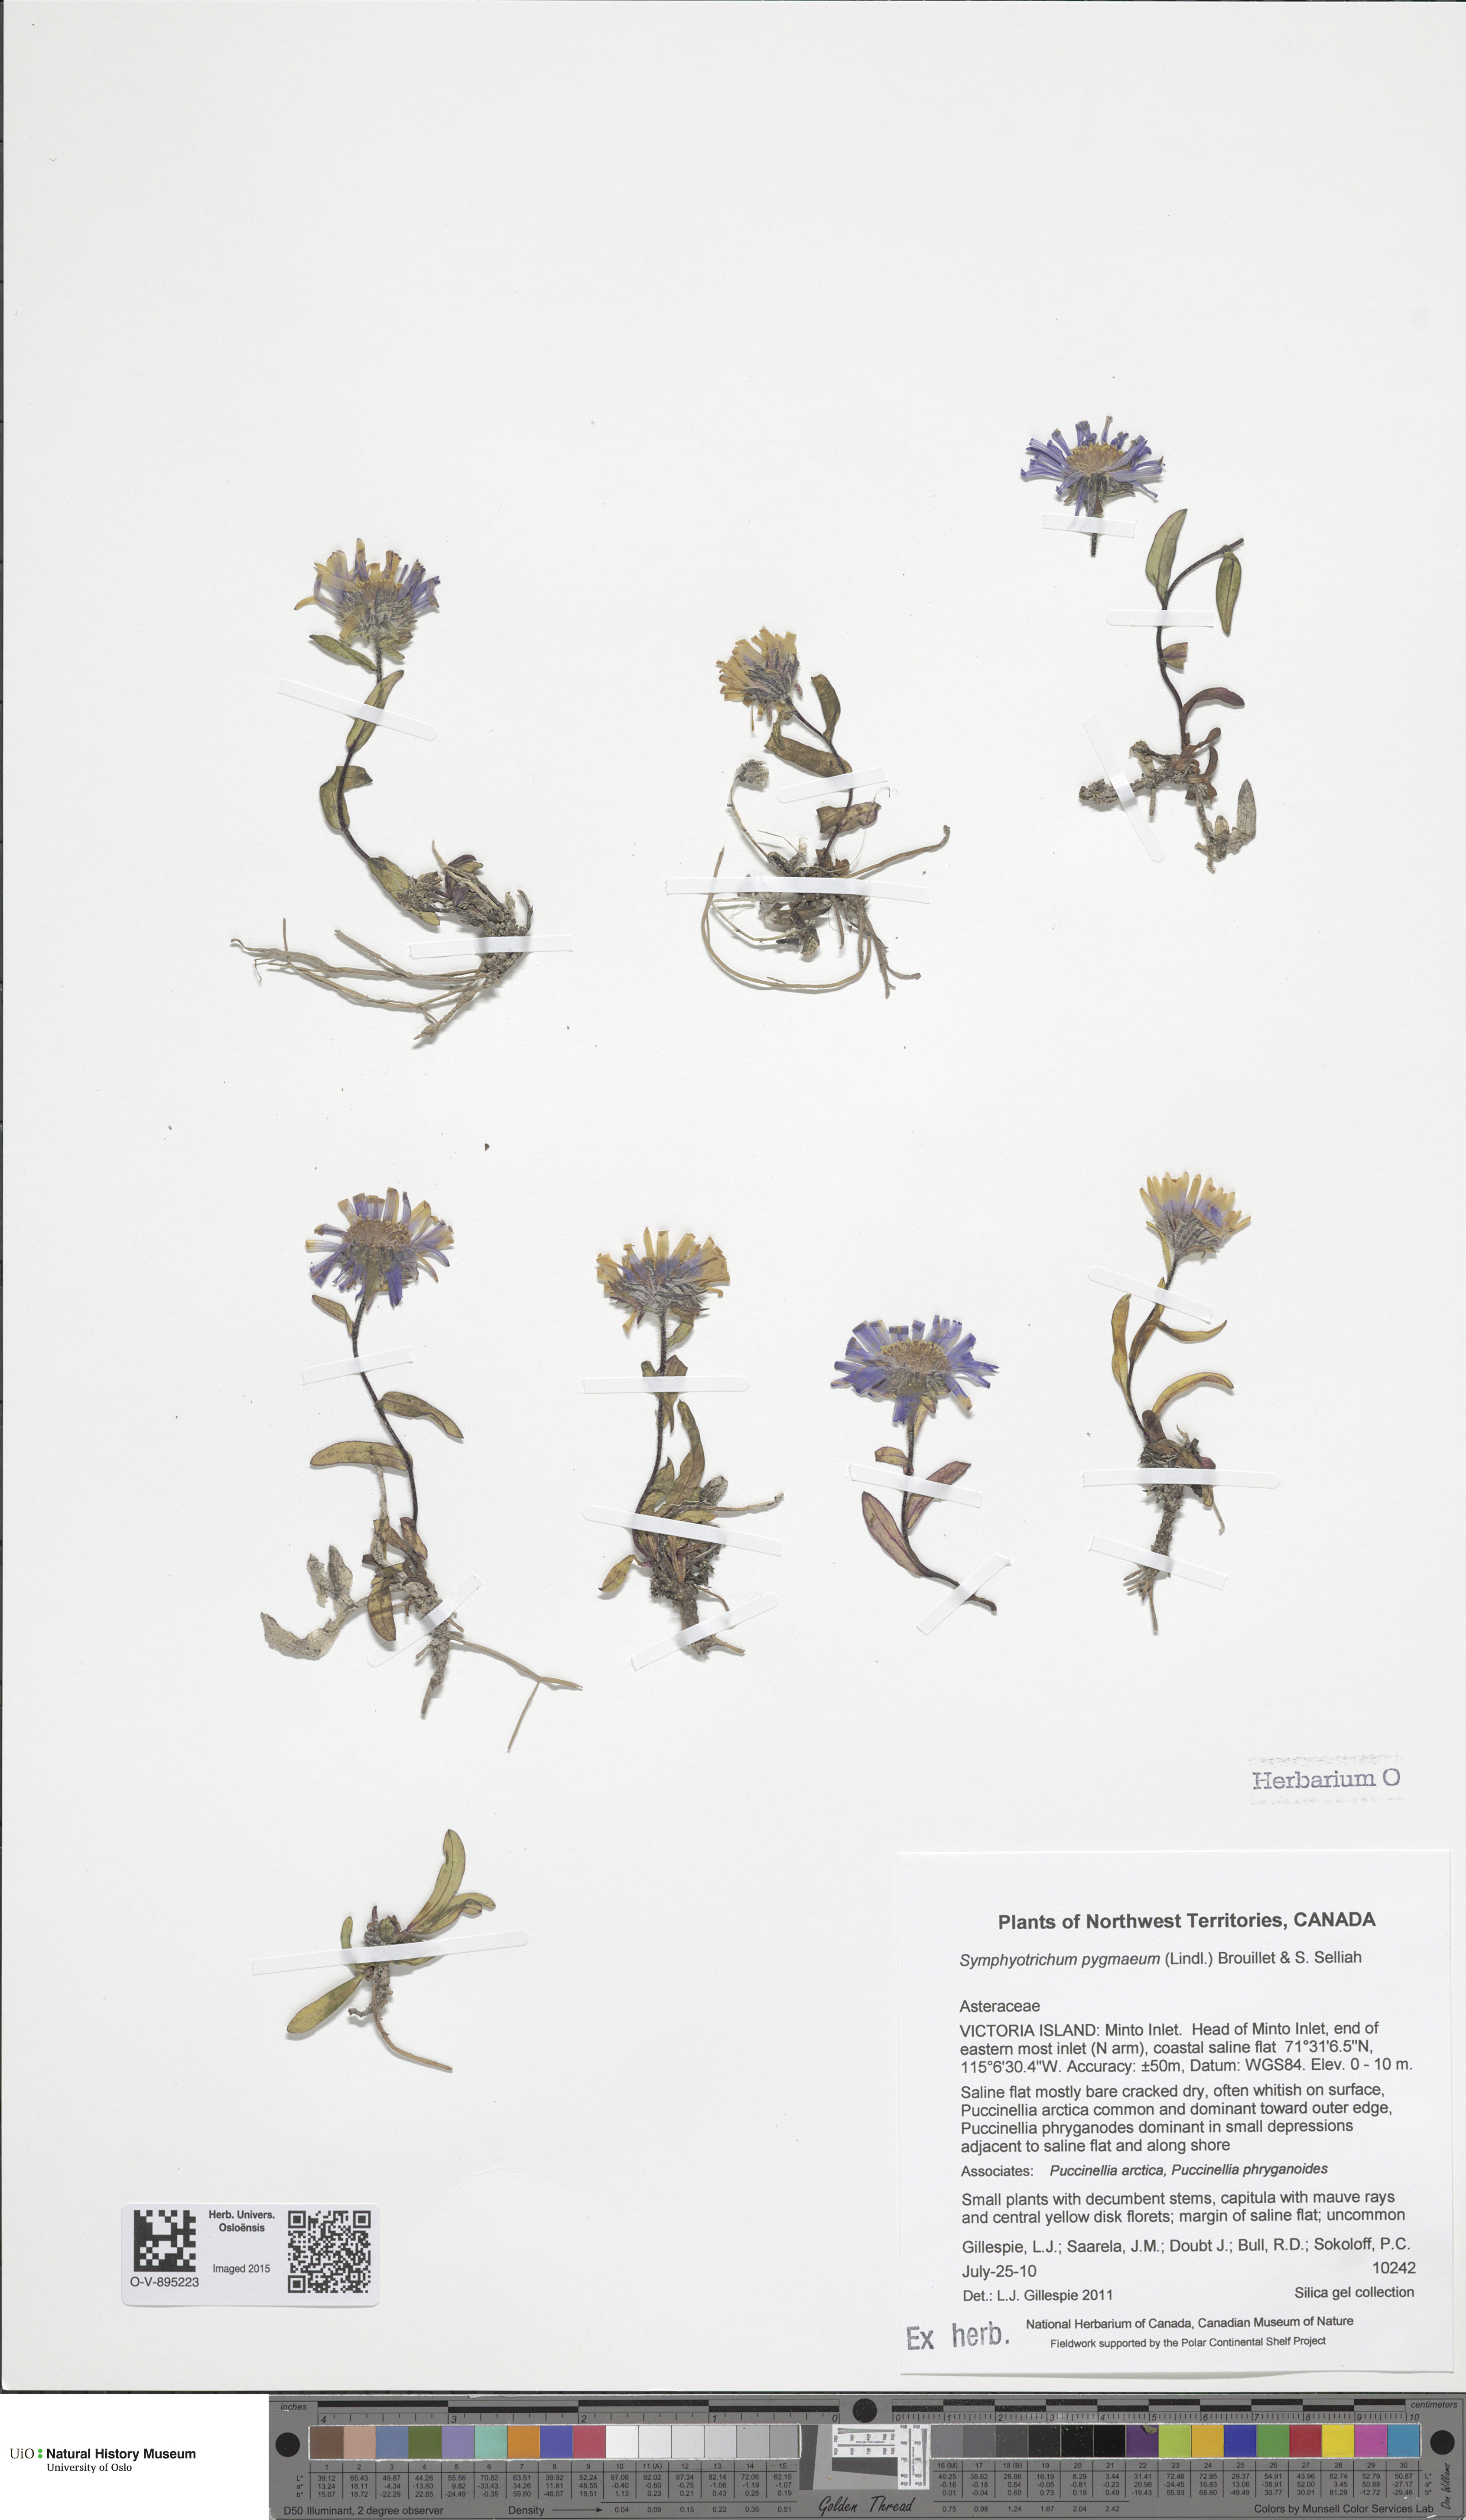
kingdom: Plantae
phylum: Tracheophyta
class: Magnoliopsida
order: Asterales
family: Asteraceae
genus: Symphyotrichum
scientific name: Symphyotrichum pygmaeum
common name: Pygmy aster
